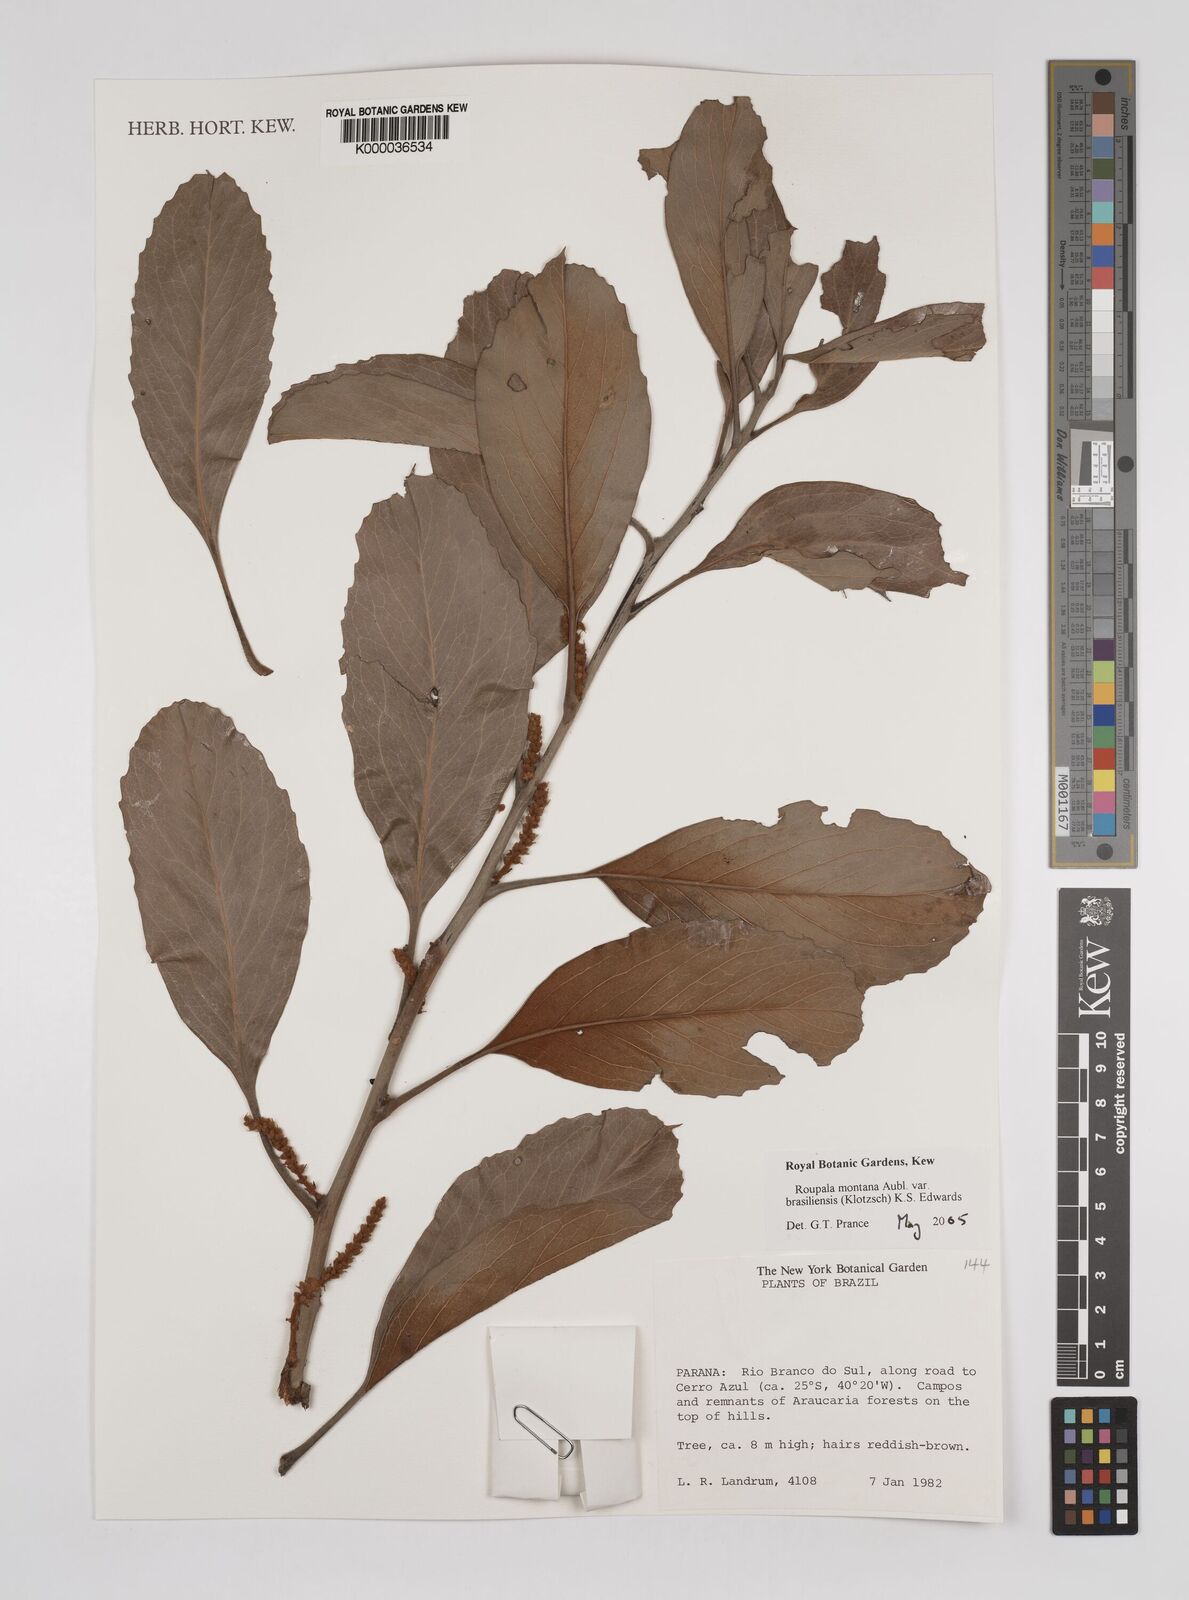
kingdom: Plantae
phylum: Tracheophyta
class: Magnoliopsida
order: Proteales
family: Proteaceae
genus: Roupala
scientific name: Roupala montana
